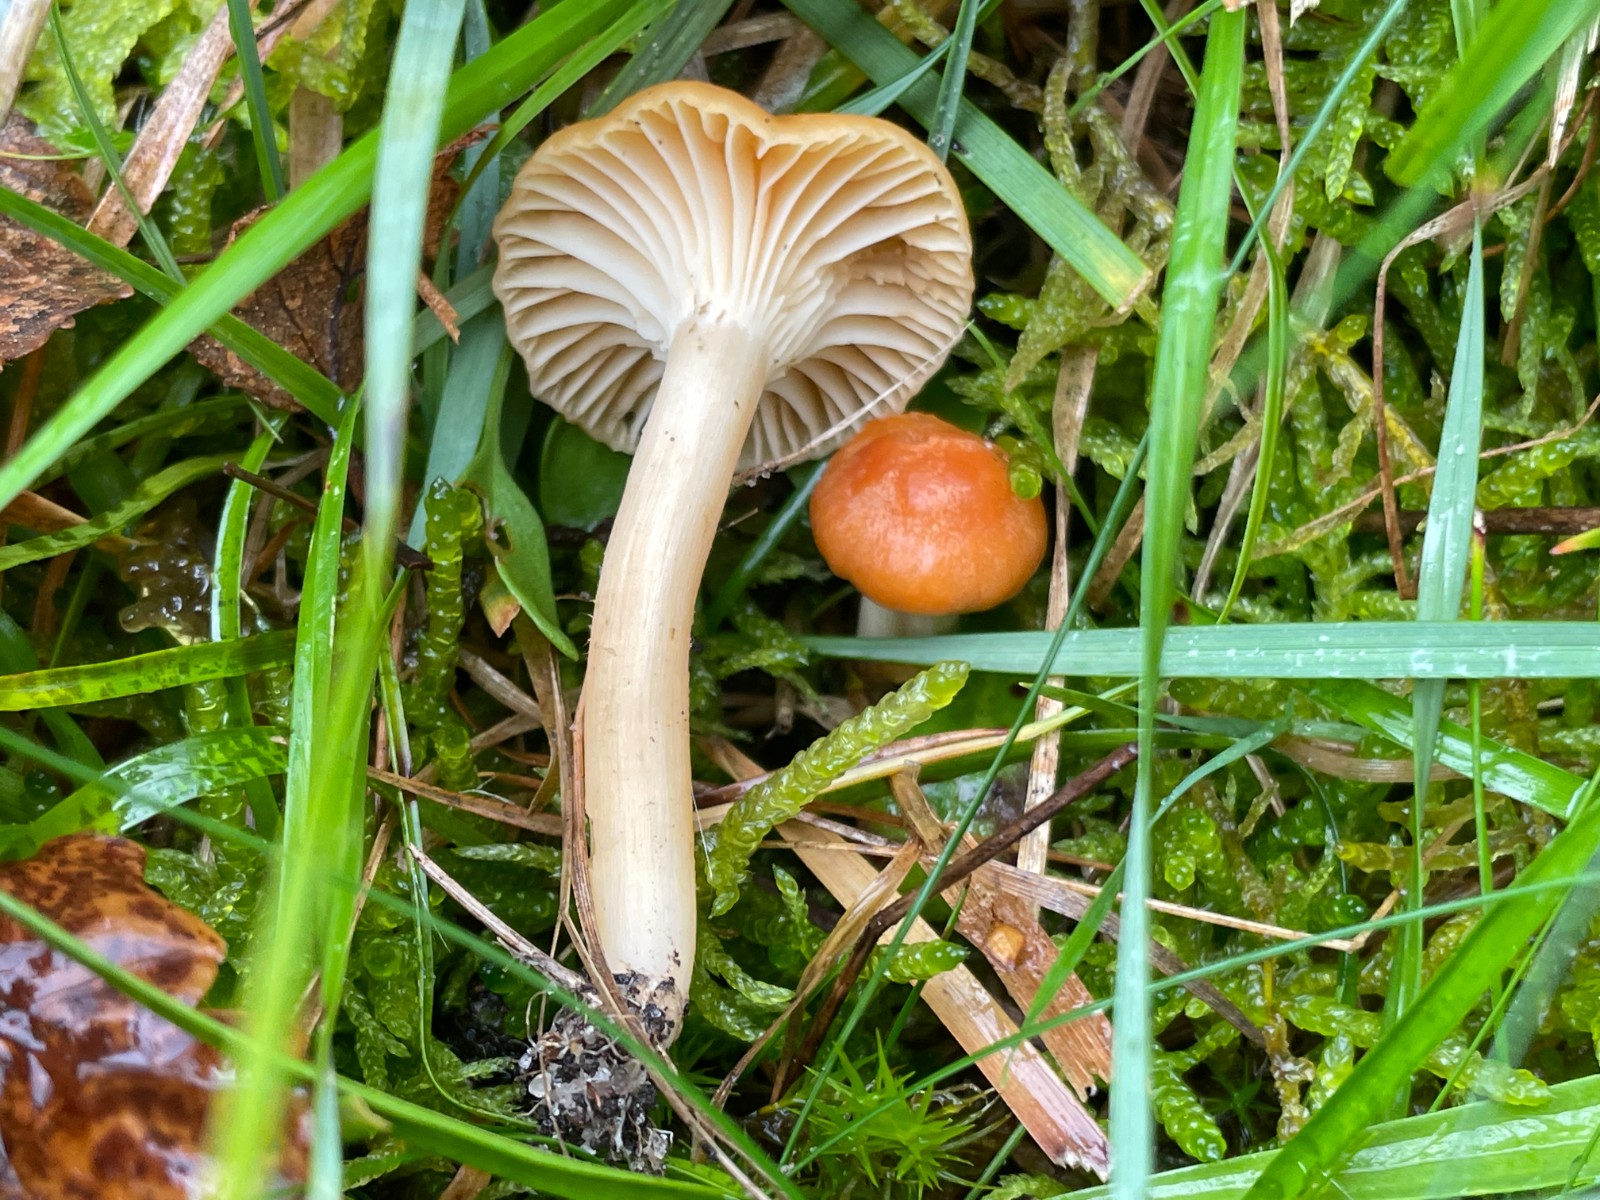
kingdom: Fungi
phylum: Basidiomycota
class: Agaricomycetes
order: Agaricales
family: Hygrophoraceae
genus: Cuphophyllus
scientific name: Cuphophyllus pratensis
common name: eng-vokshat
